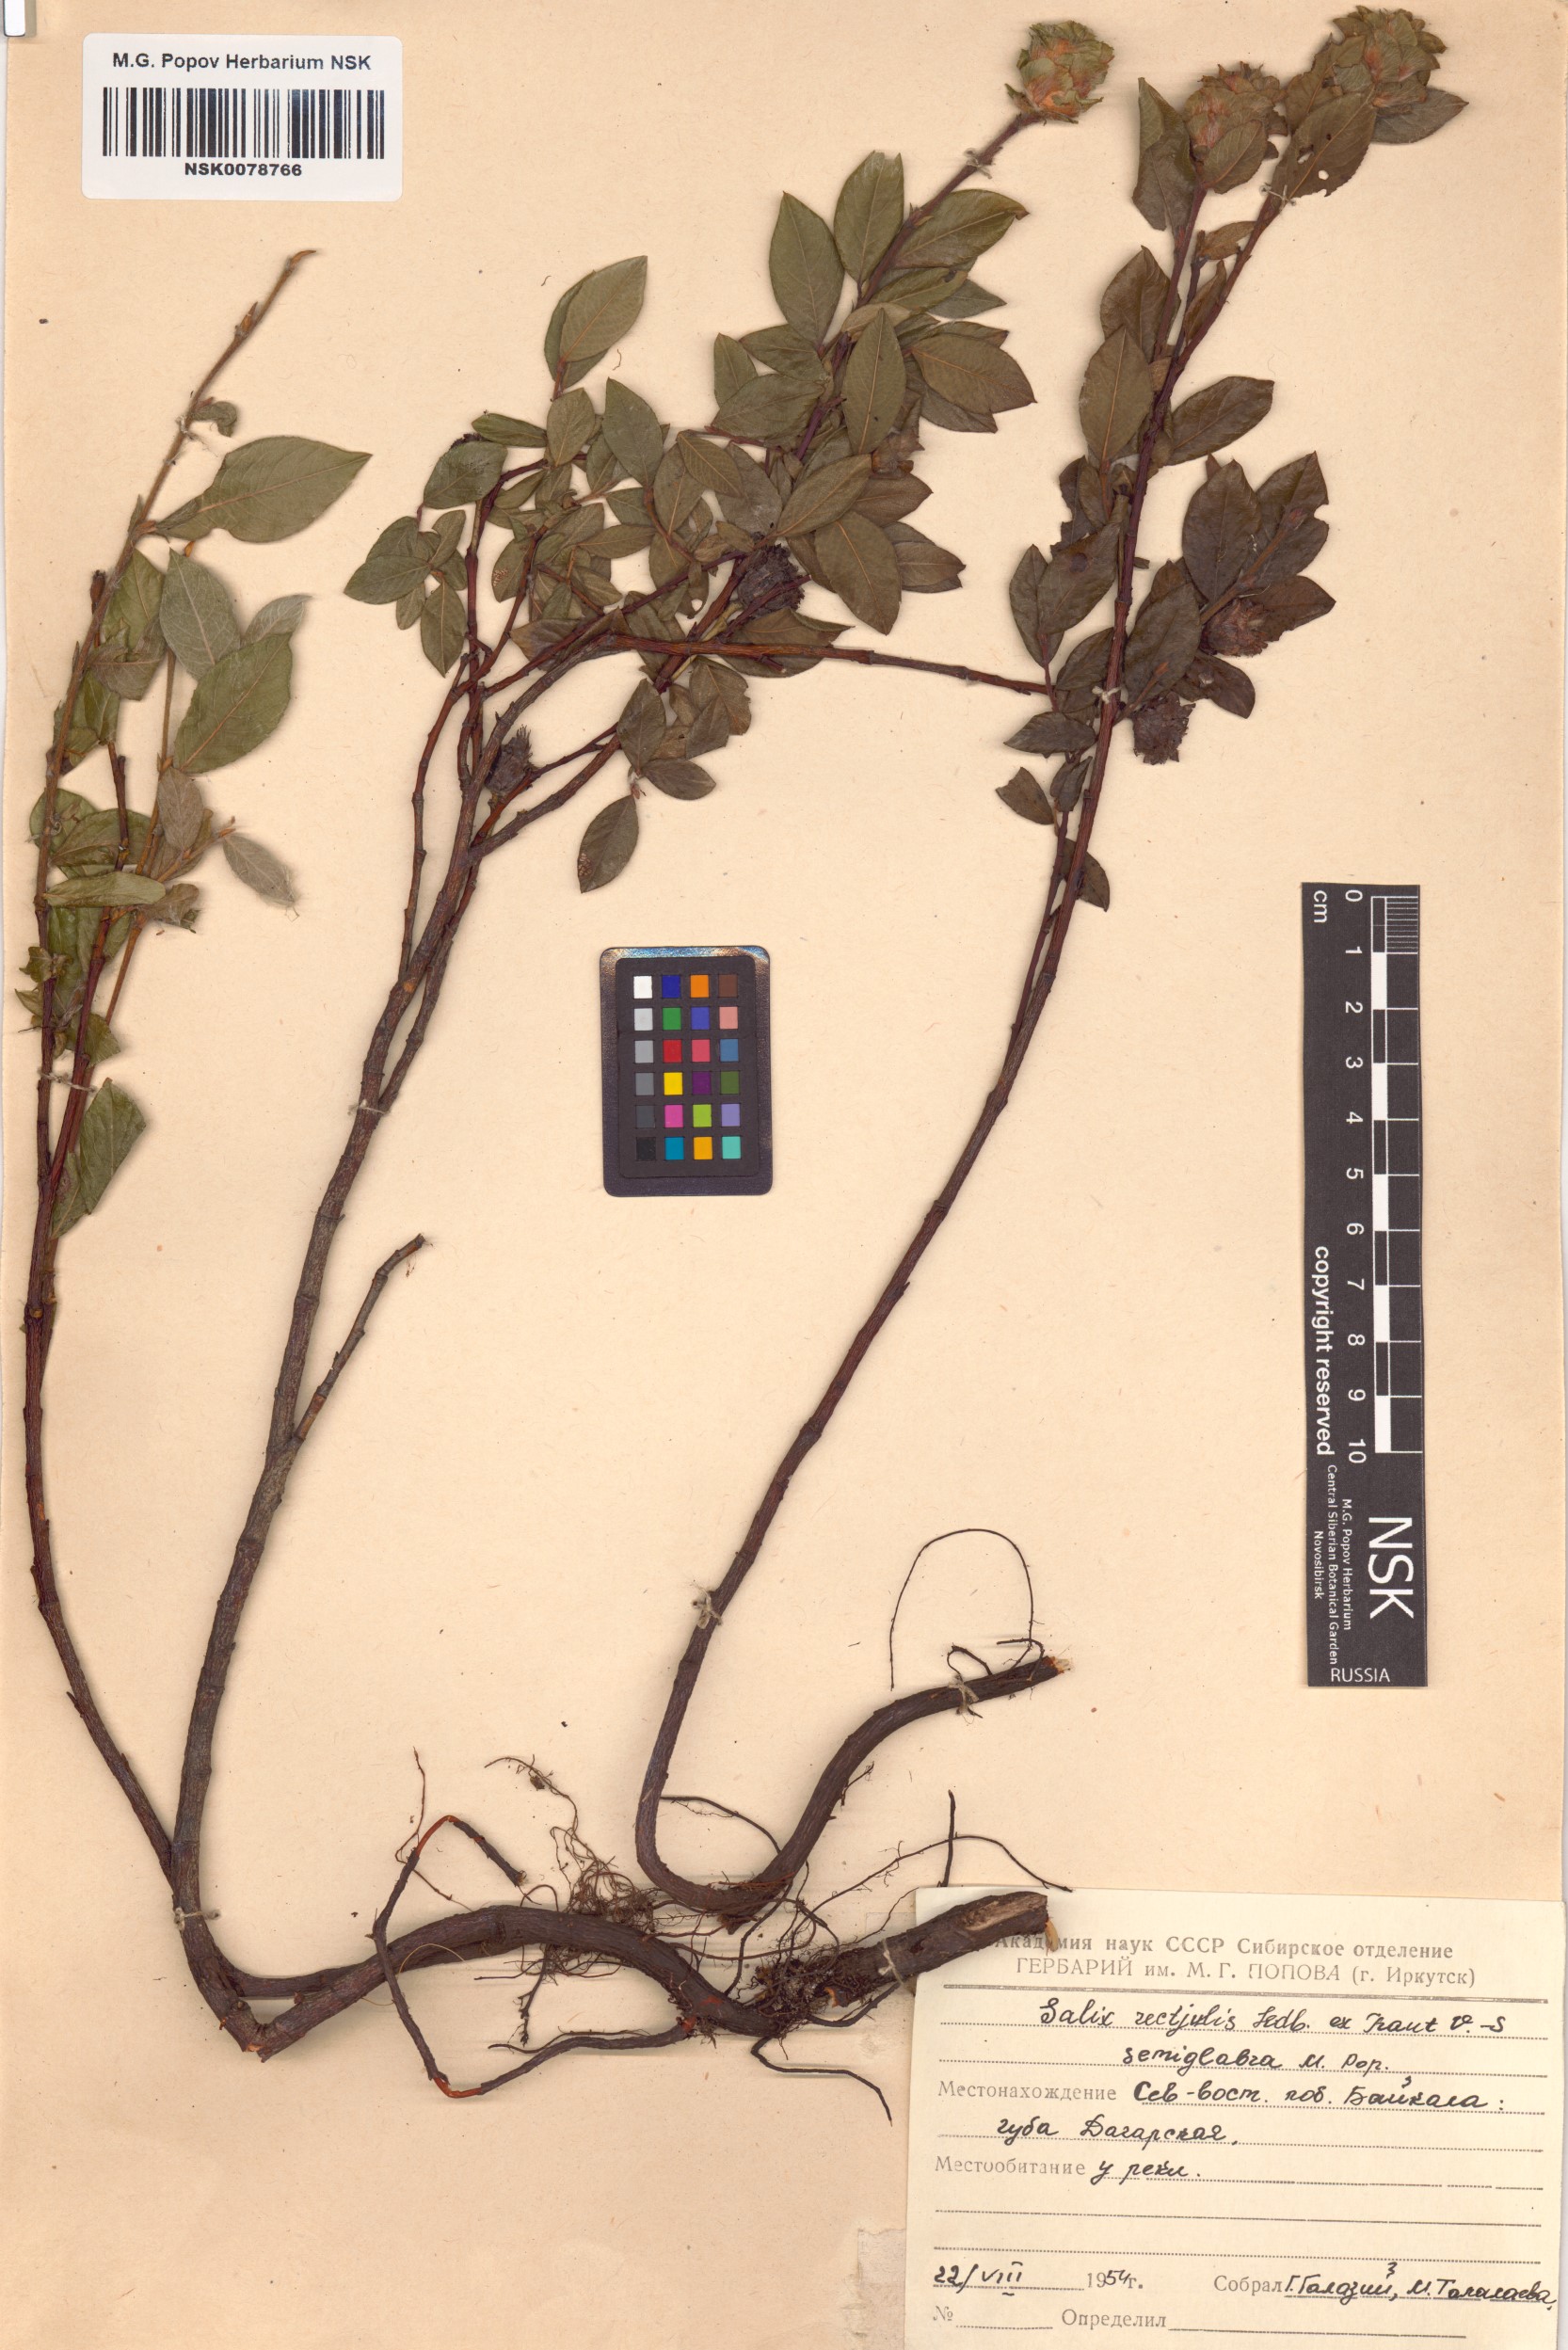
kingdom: Plantae
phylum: Tracheophyta
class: Magnoliopsida
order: Malpighiales
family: Salicaceae
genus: Salix
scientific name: Salix rectijulis
